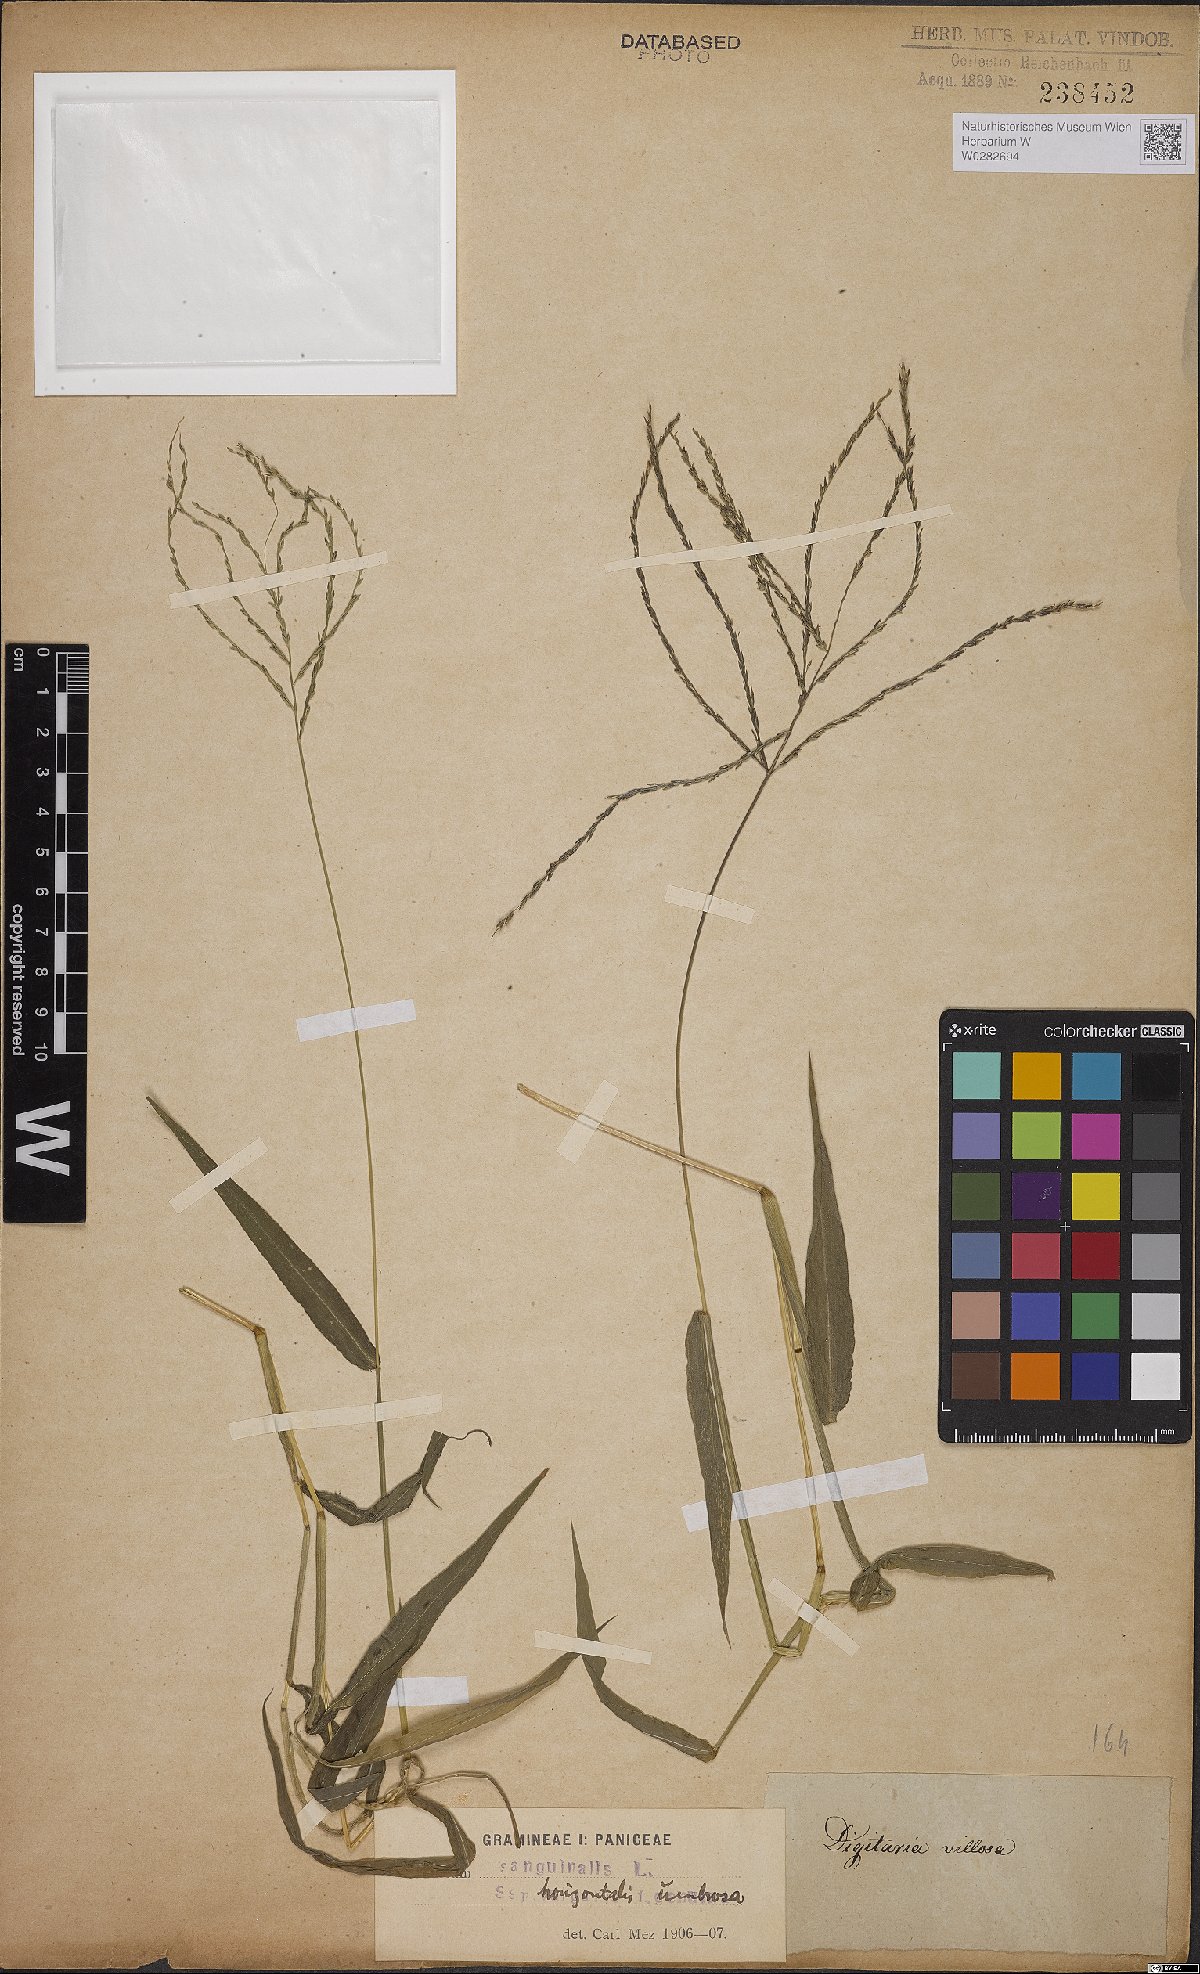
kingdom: Plantae
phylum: Tracheophyta
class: Liliopsida
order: Poales
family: Poaceae
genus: Digitaria
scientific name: Digitaria horizontalis
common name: Jamaican crabgrass
